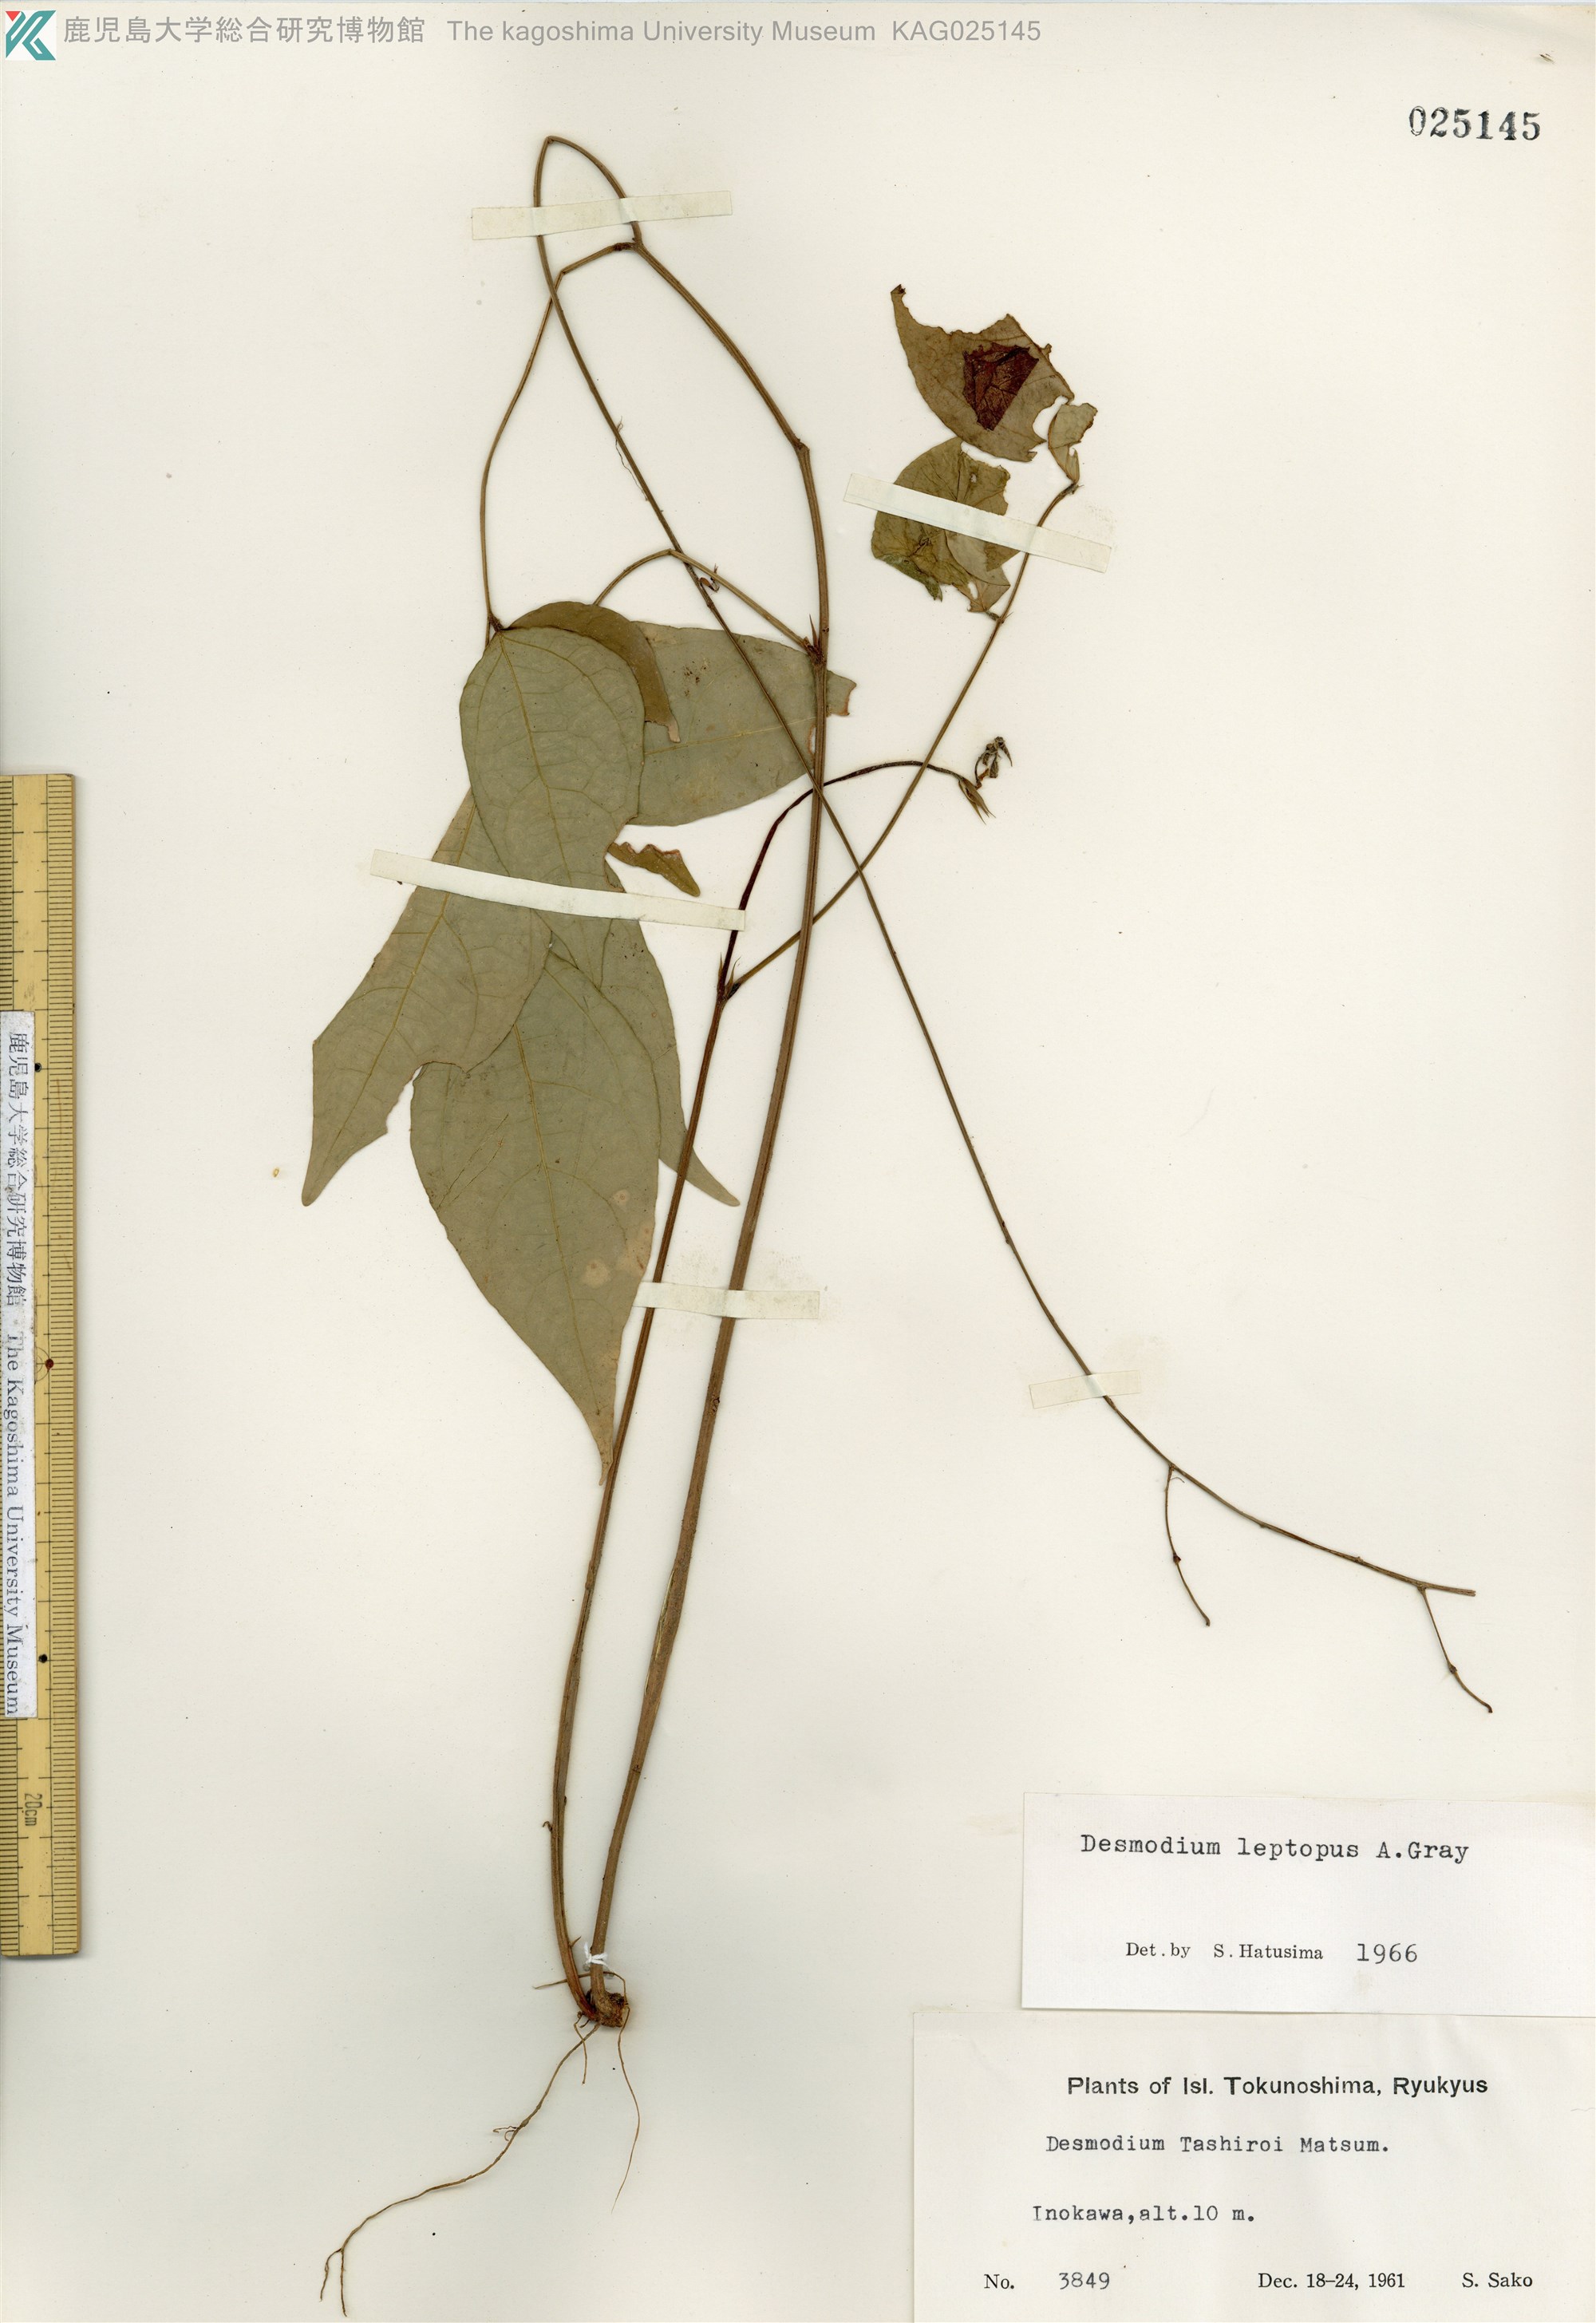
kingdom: Plantae
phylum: Tracheophyta
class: Magnoliopsida
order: Fabales
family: Fabaceae
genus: Hylodesmum
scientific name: Hylodesmum leptopus
